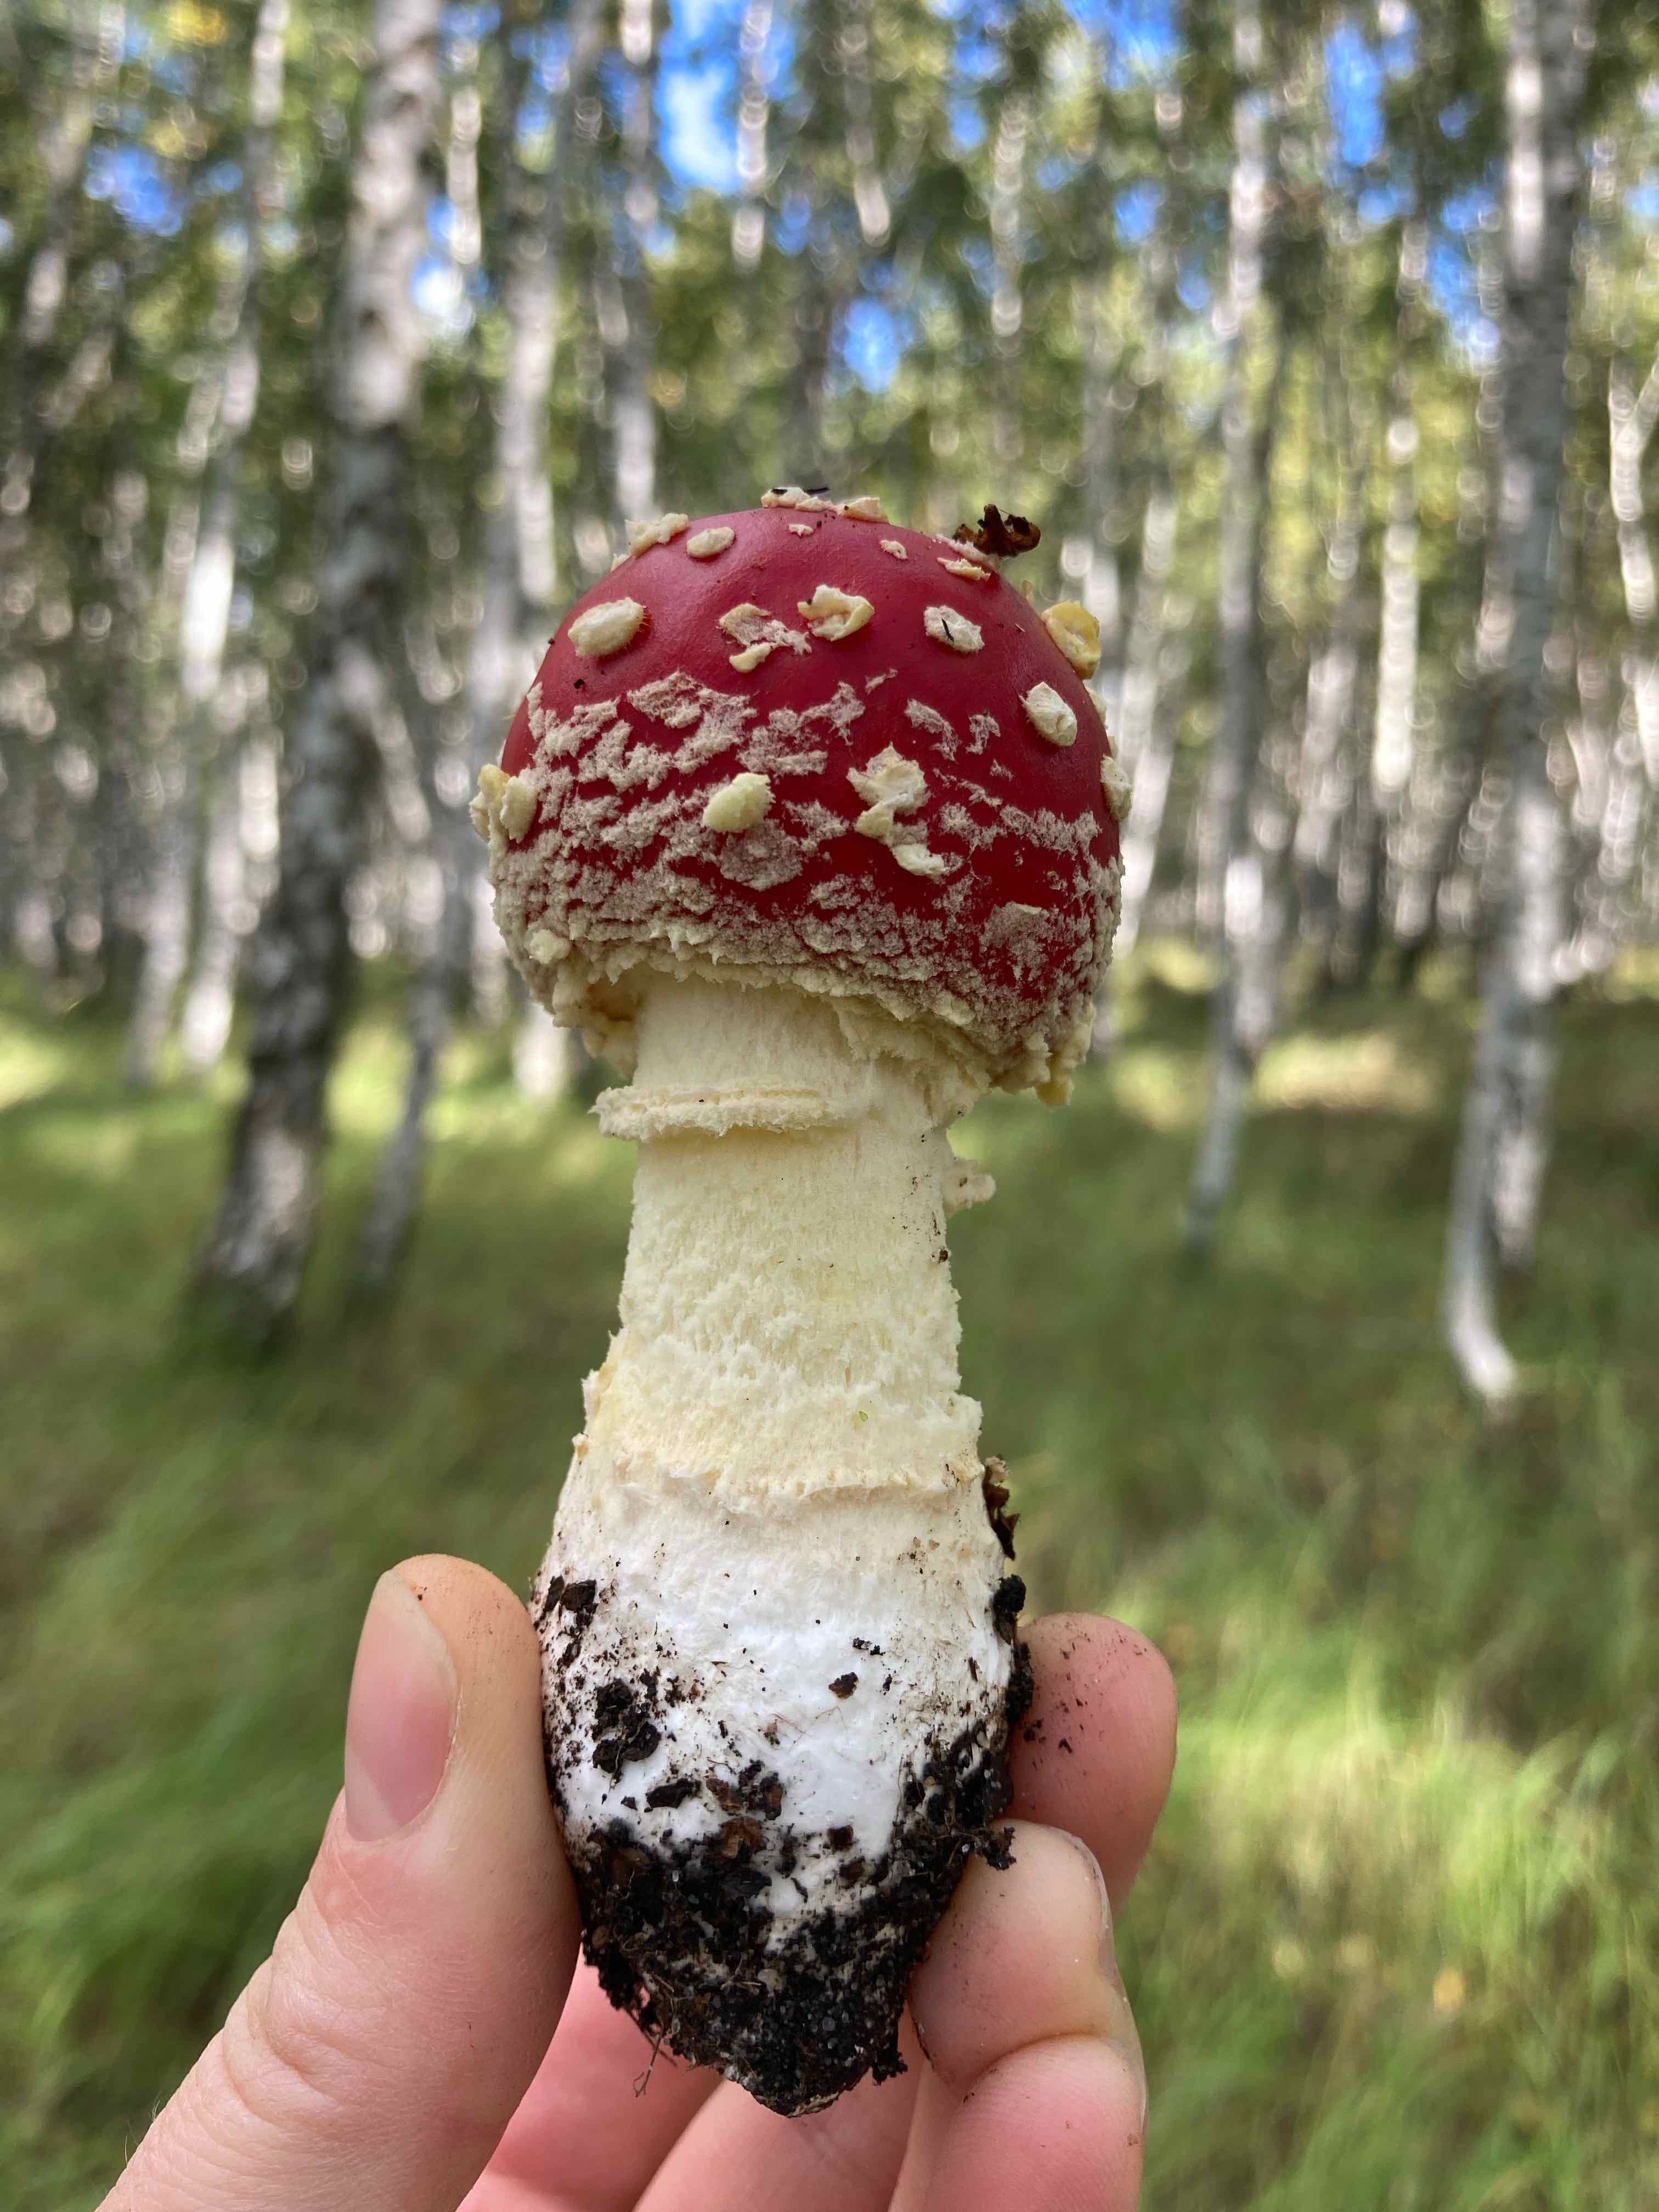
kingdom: Fungi
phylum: Basidiomycota
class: Agaricomycetes
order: Agaricales
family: Amanitaceae
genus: Amanita
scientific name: Amanita muscaria
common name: rød fluesvamp
